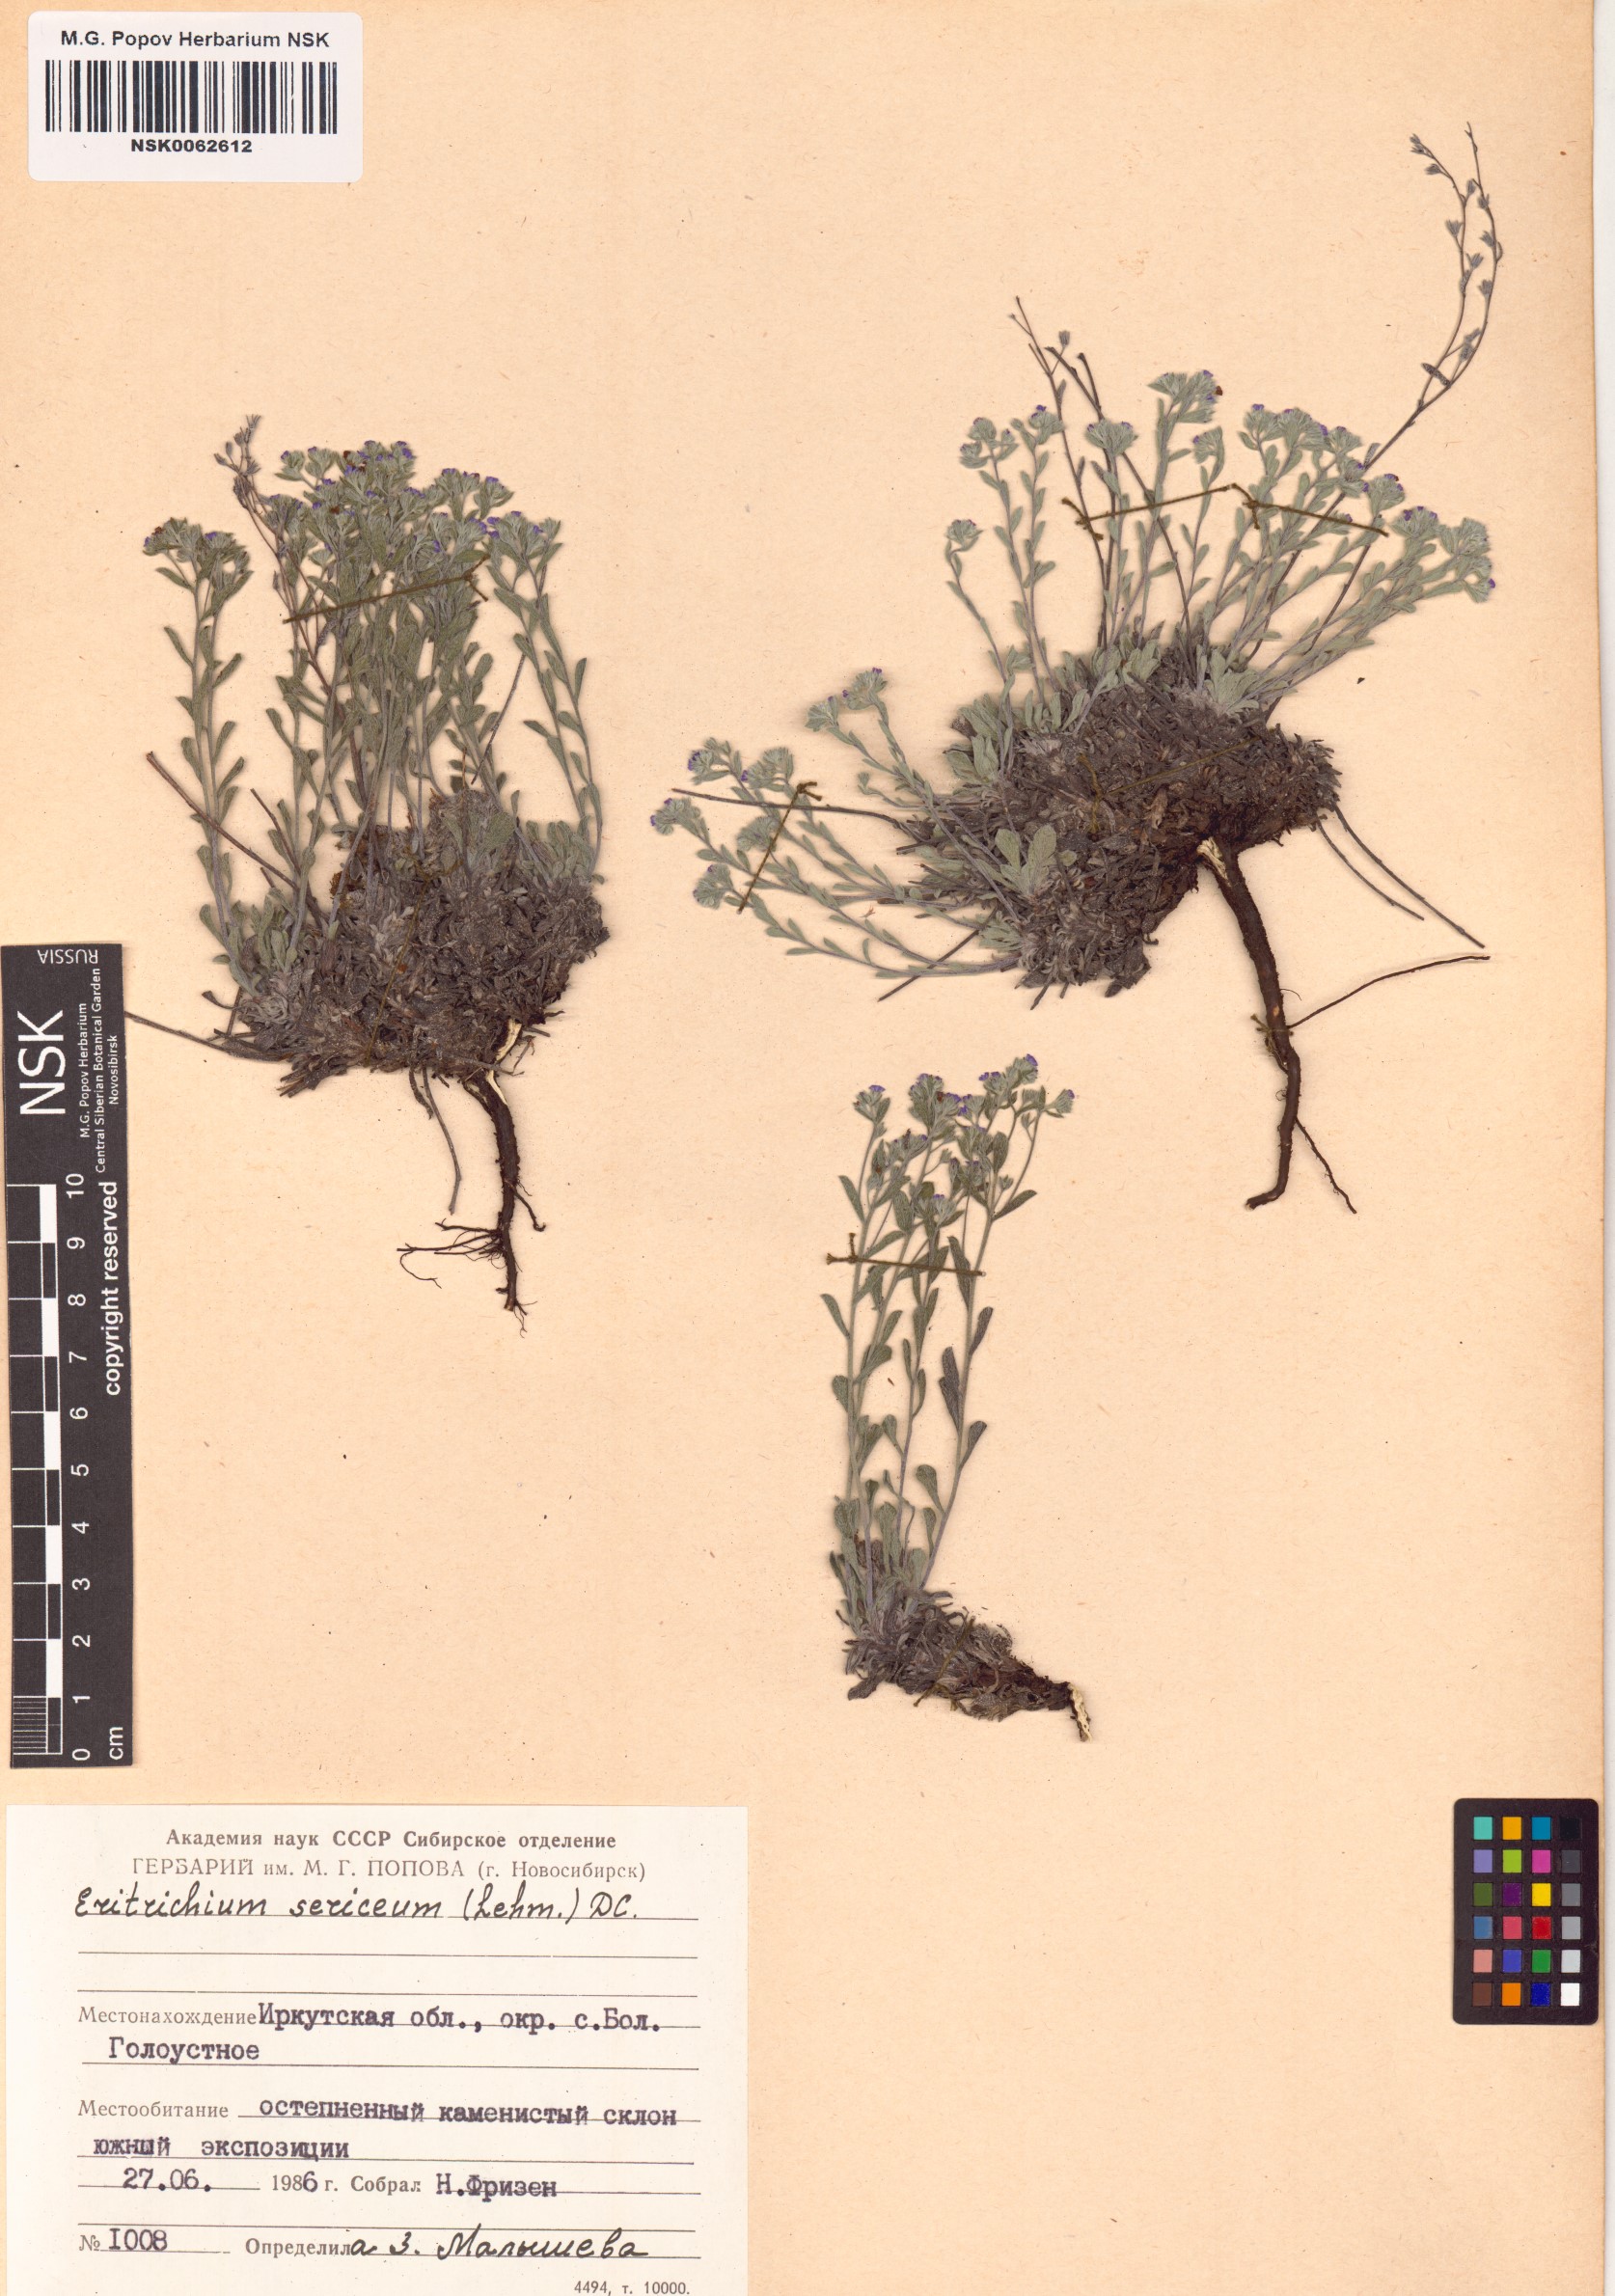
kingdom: Plantae
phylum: Tracheophyta
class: Magnoliopsida
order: Boraginales
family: Boraginaceae
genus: Eritrichium
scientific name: Eritrichium sericeum
